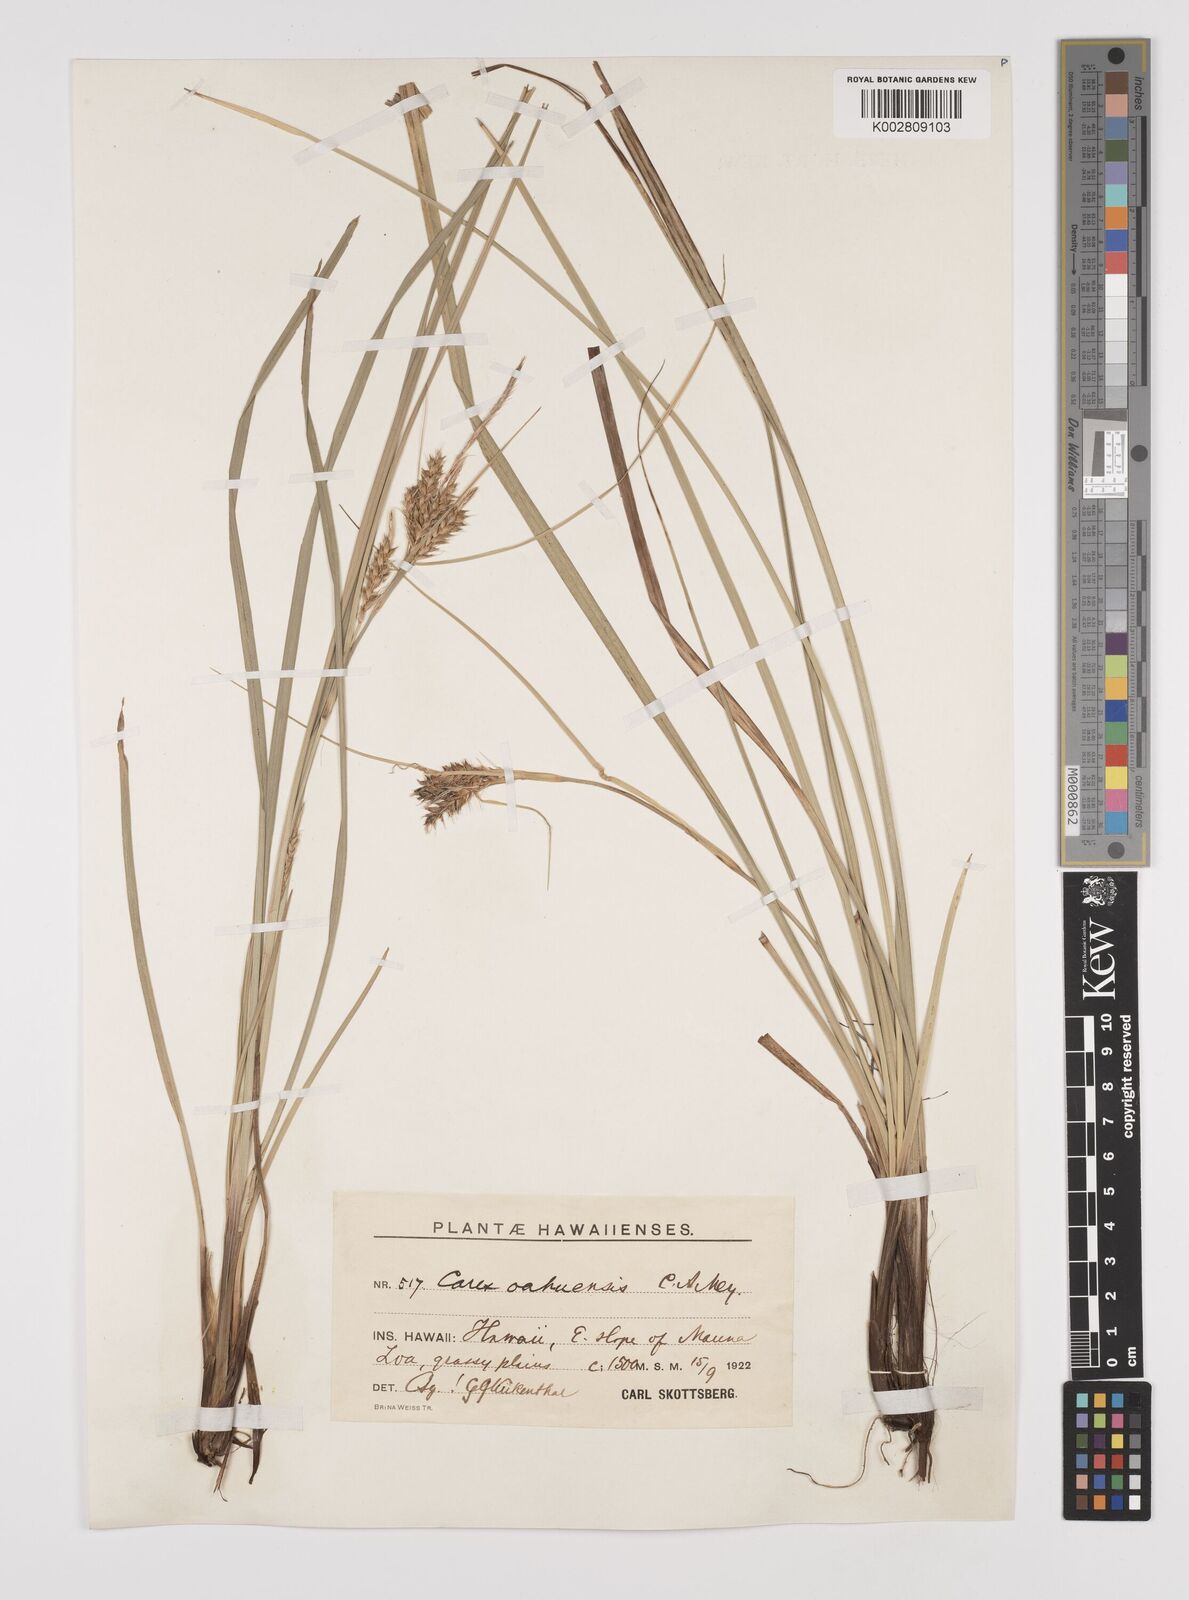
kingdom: Plantae
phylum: Tracheophyta
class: Liliopsida
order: Poales
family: Cyperaceae
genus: Carex
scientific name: Carex wahuensis
